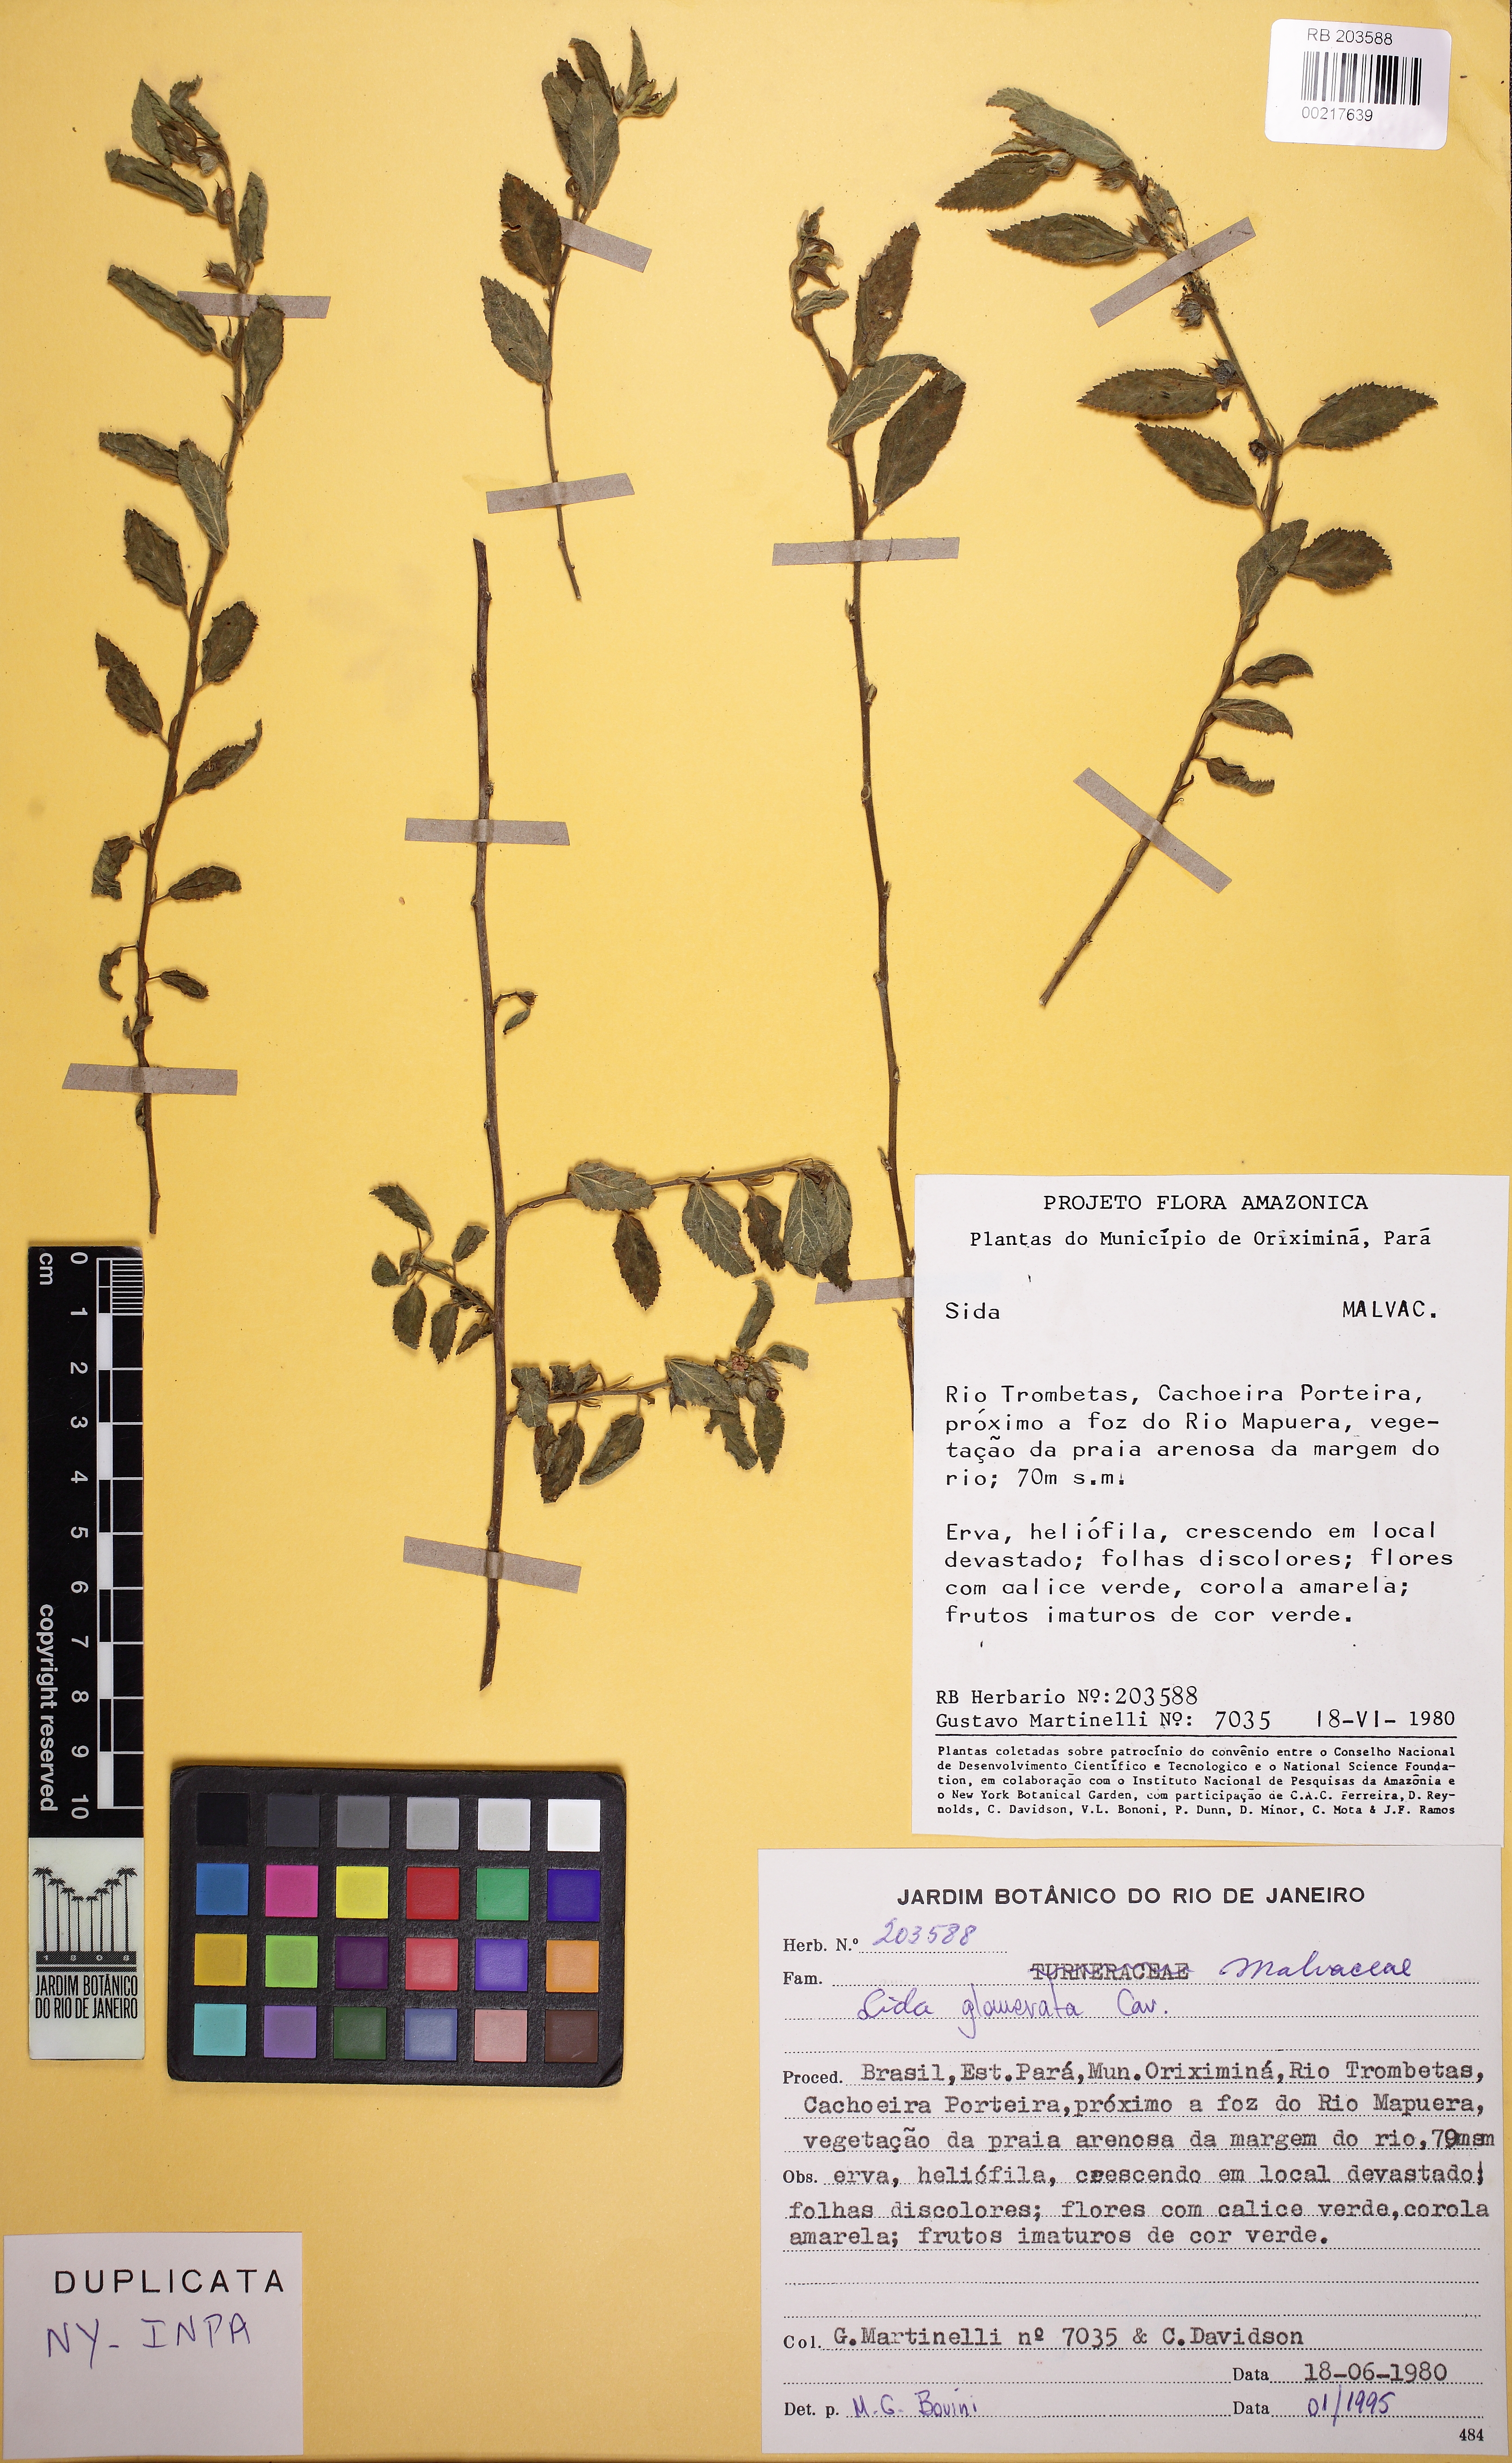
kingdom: Plantae
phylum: Tracheophyta
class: Magnoliopsida
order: Malvales
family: Malvaceae
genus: Sida
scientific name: Sida glomerata
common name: Clustered fanpetals
